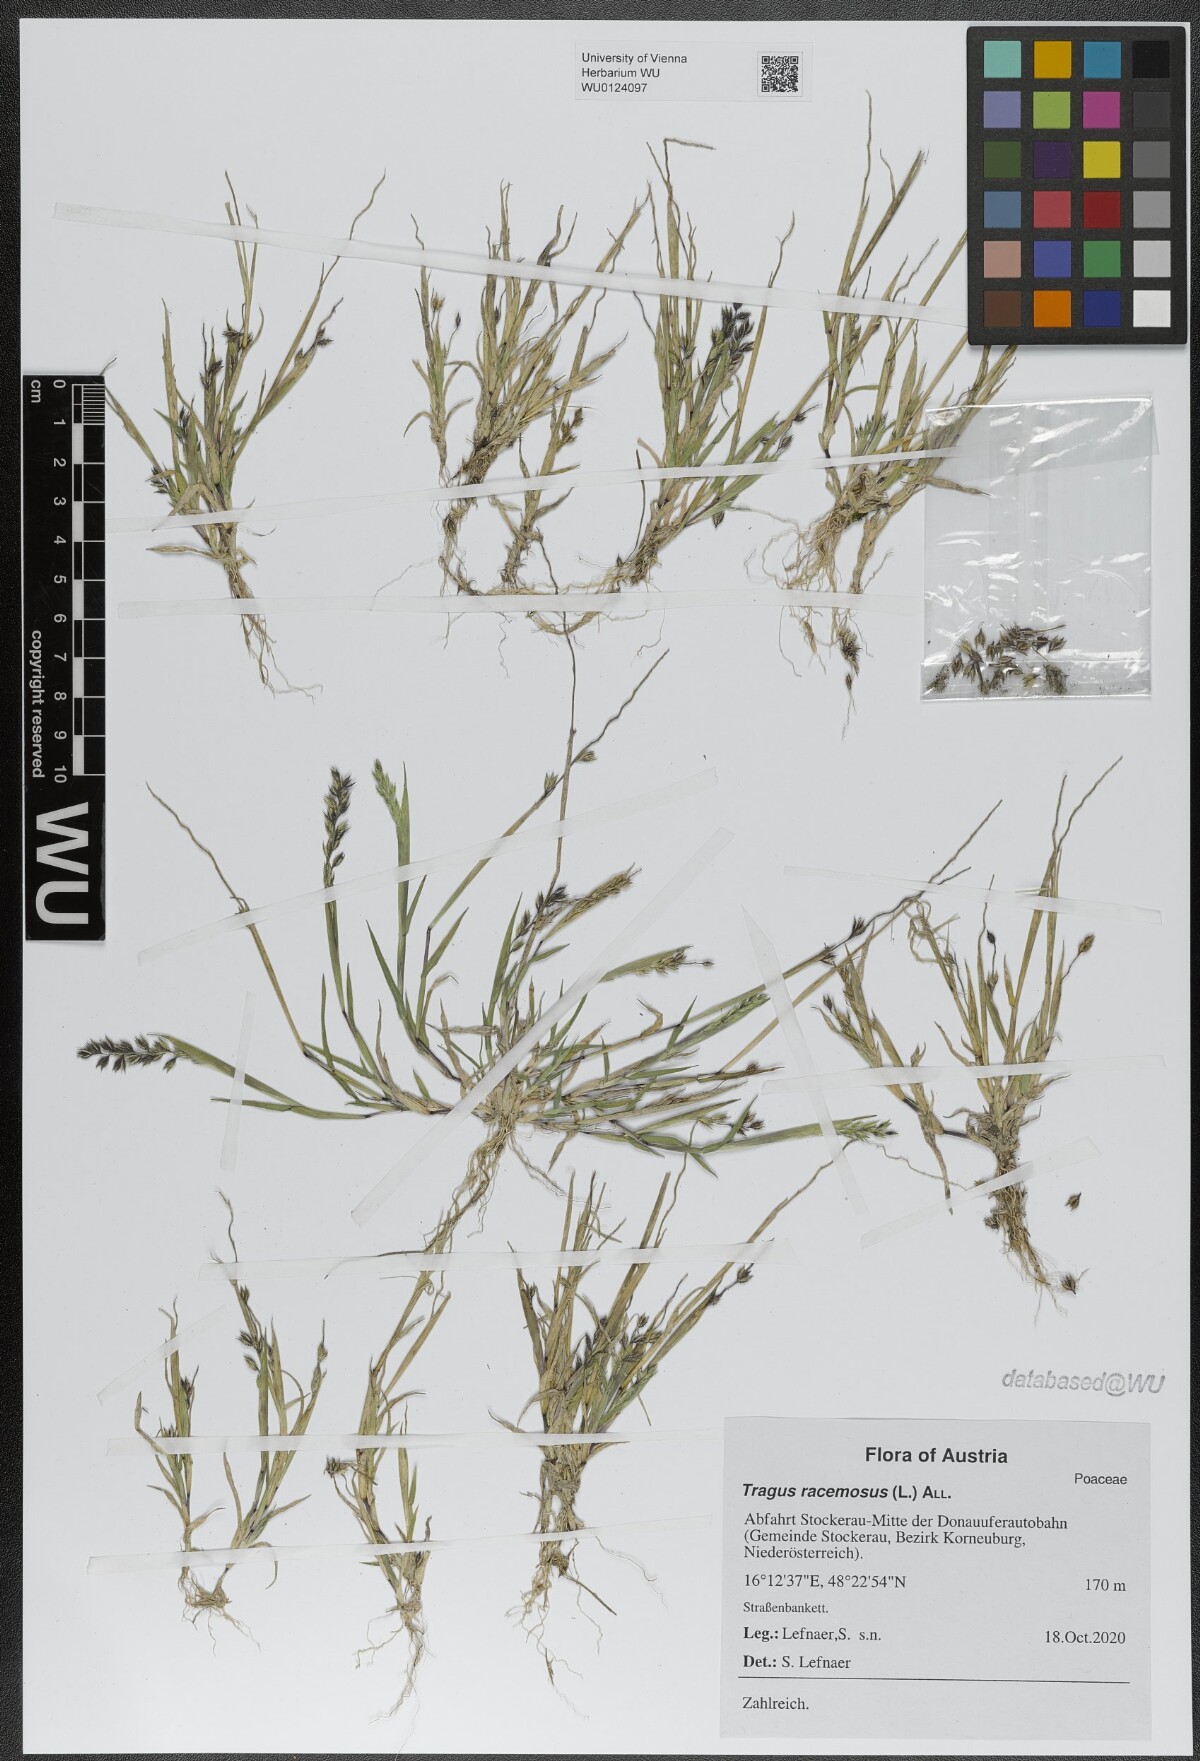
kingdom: Plantae
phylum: Tracheophyta
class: Liliopsida
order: Poales
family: Poaceae
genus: Tragus
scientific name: Tragus racemosus
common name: European bur-grass
